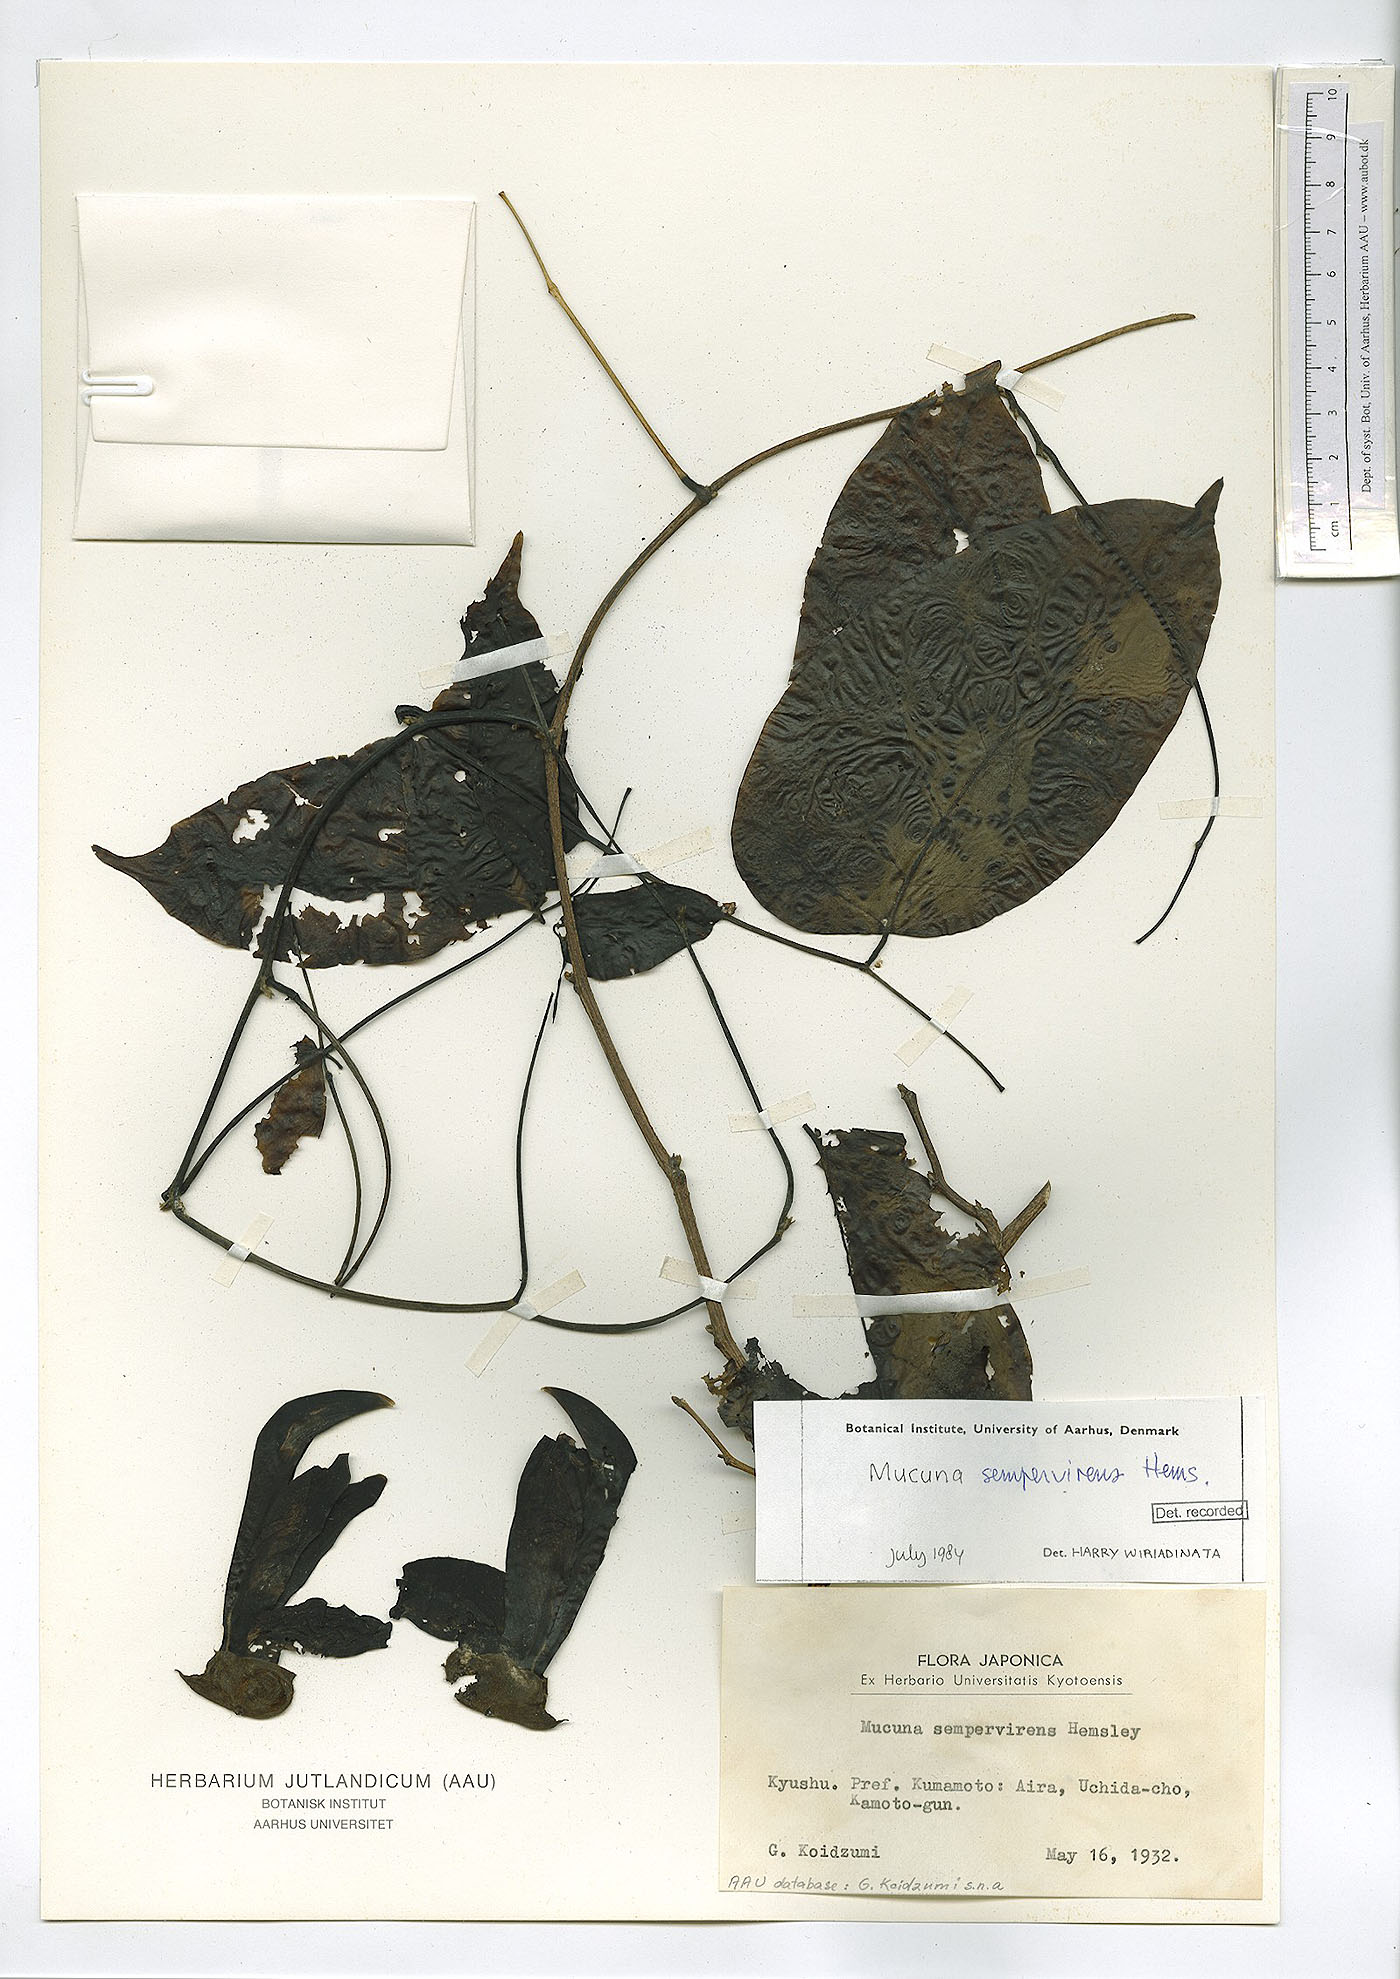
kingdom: Plantae
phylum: Tracheophyta
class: Magnoliopsida
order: Fabales
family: Fabaceae
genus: Mucuna
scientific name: Mucuna sempervirens
